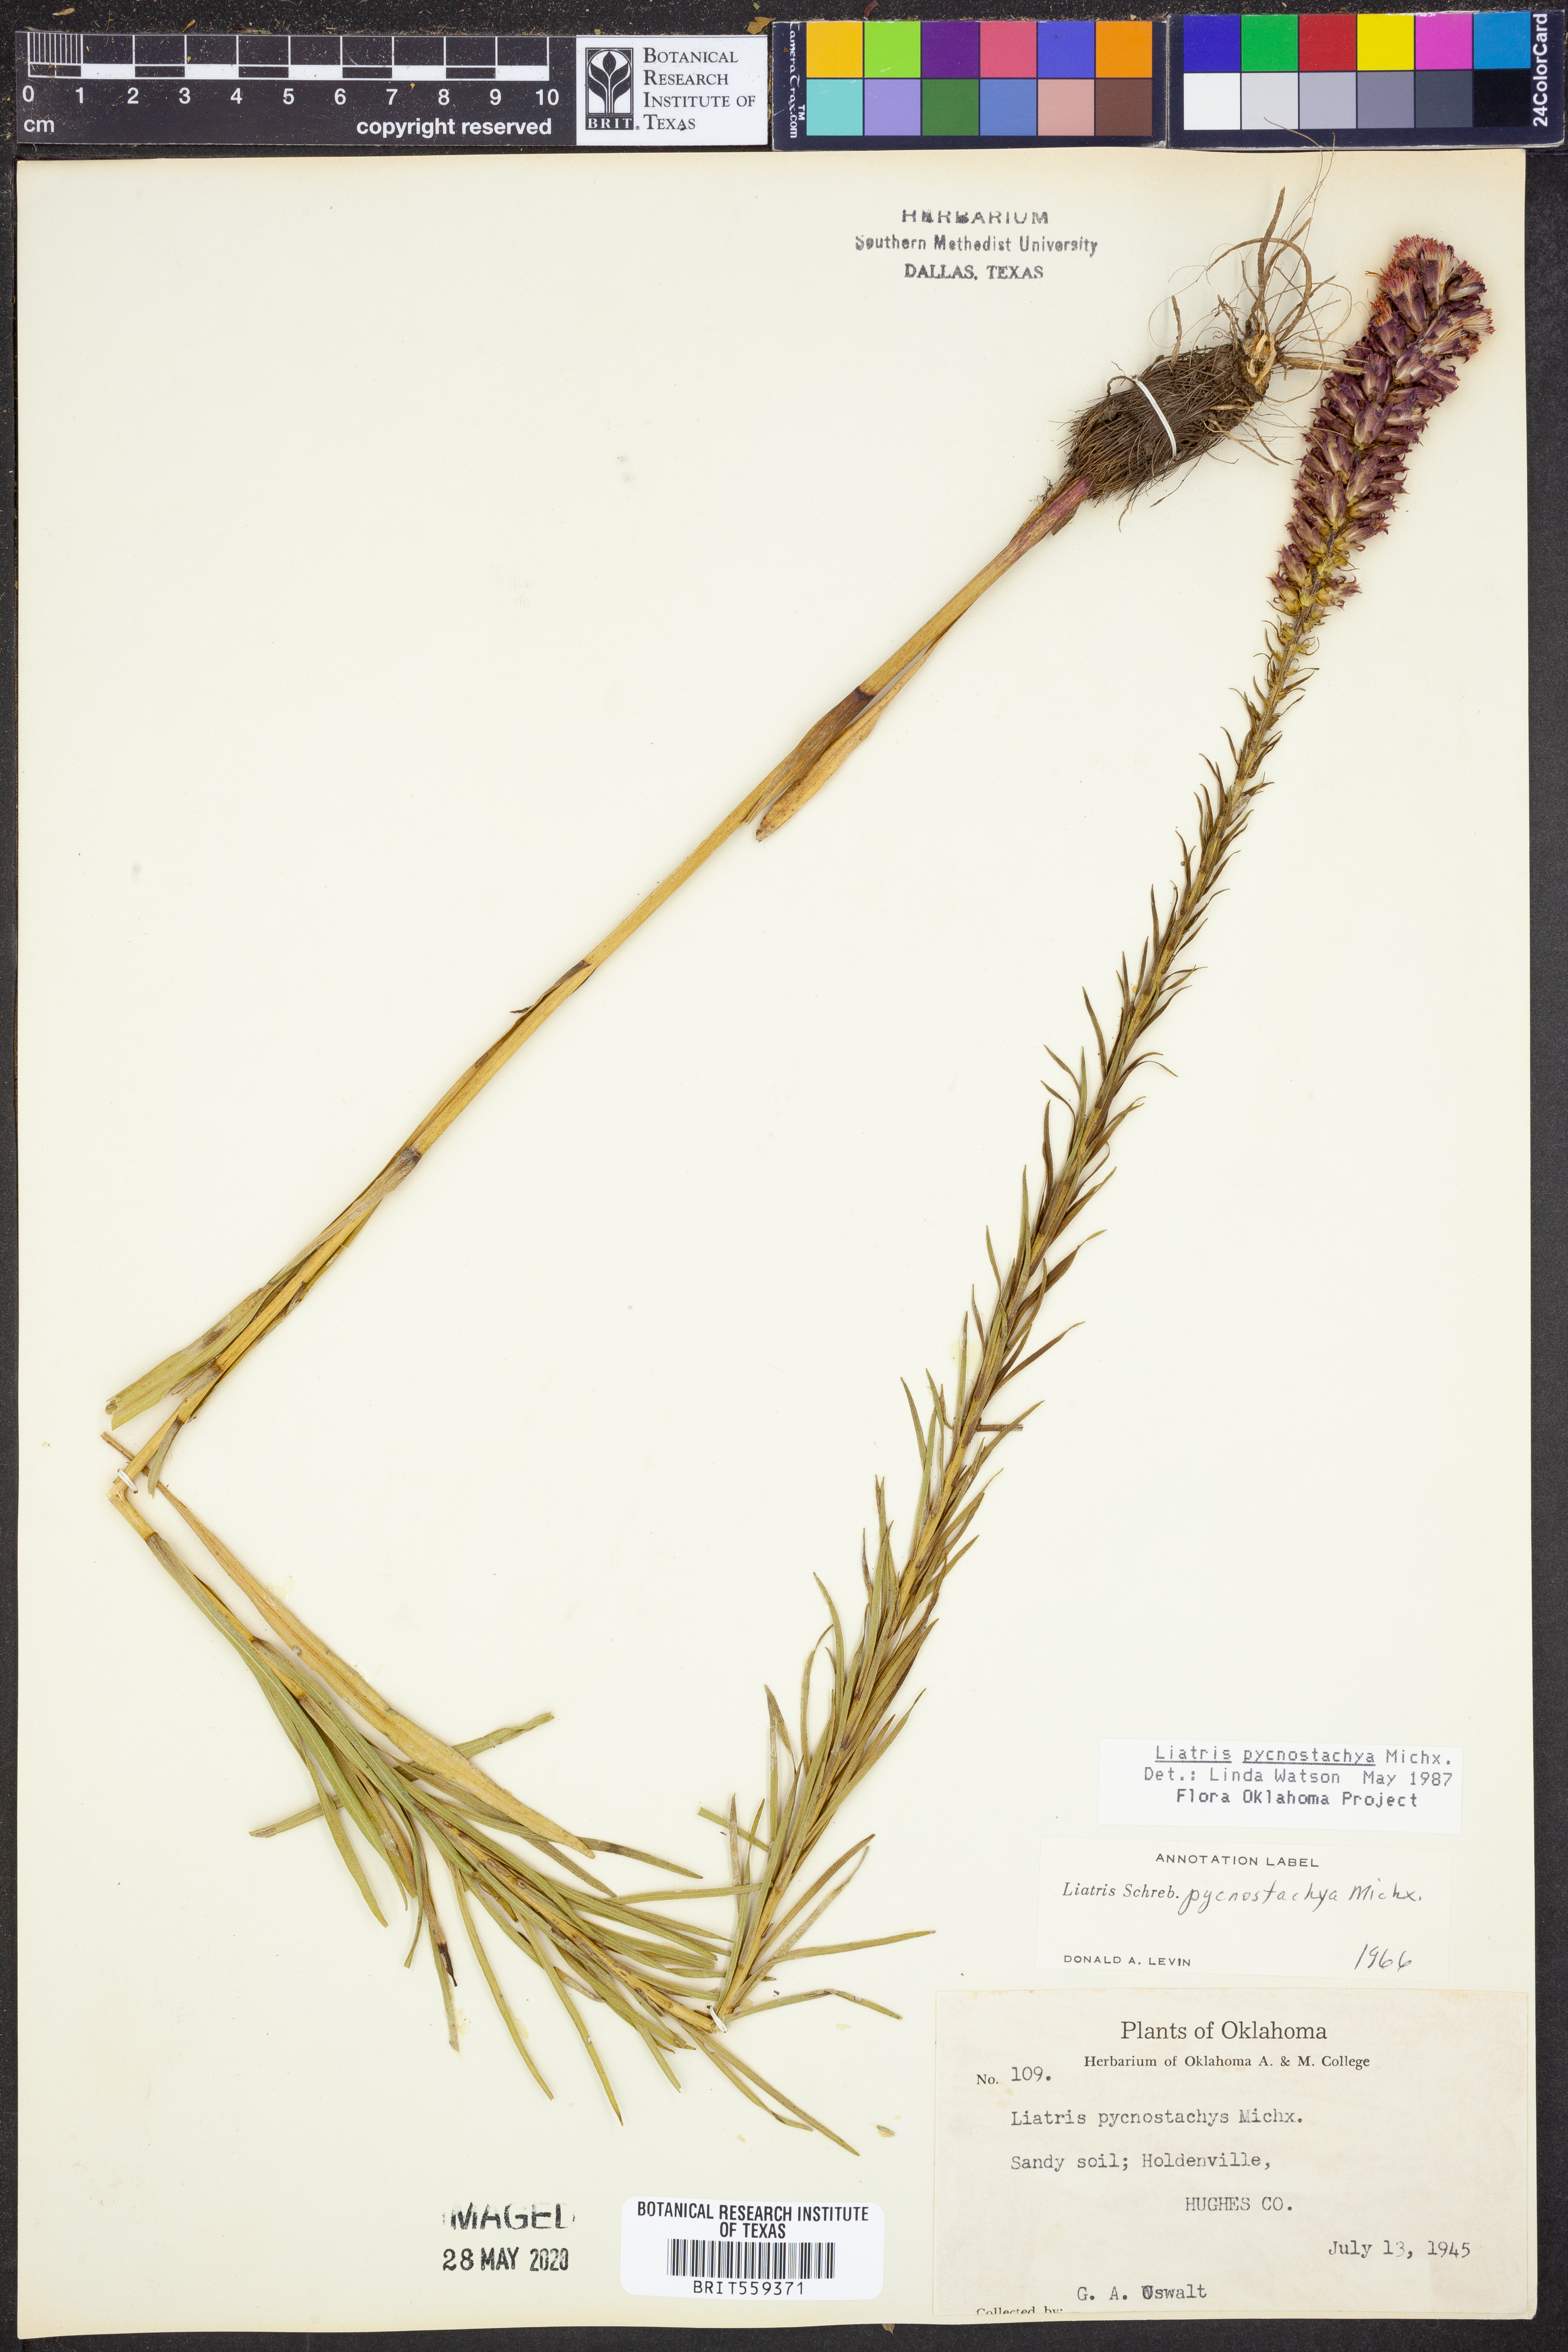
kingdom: Plantae
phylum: Tracheophyta
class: Magnoliopsida
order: Asterales
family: Asteraceae
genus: Liatris
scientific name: Liatris pycnostachya
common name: Cattail gayfeather
